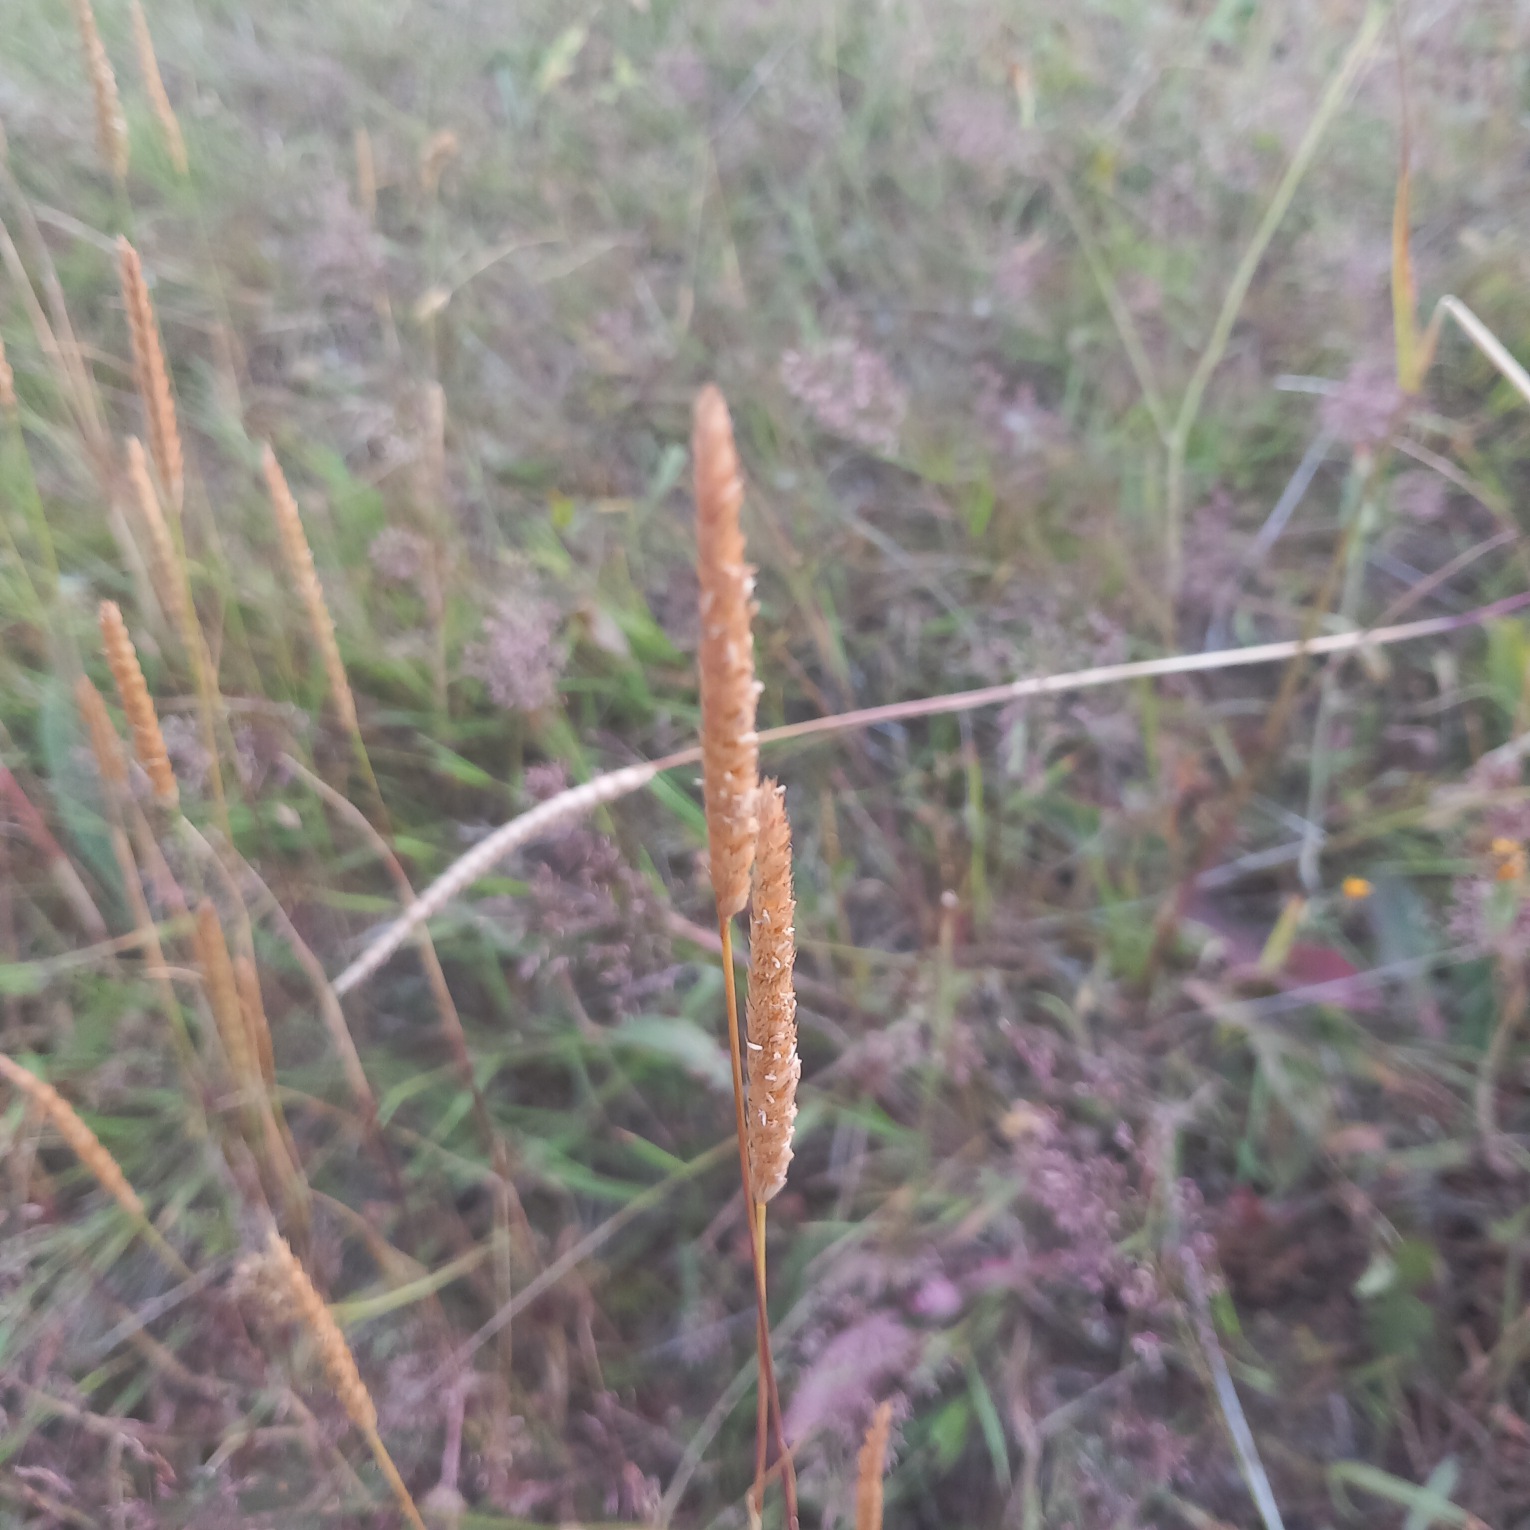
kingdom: Plantae
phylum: Tracheophyta
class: Liliopsida
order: Poales
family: Poaceae
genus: Cynosurus
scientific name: Cynosurus cristatus
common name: Kamgræs
